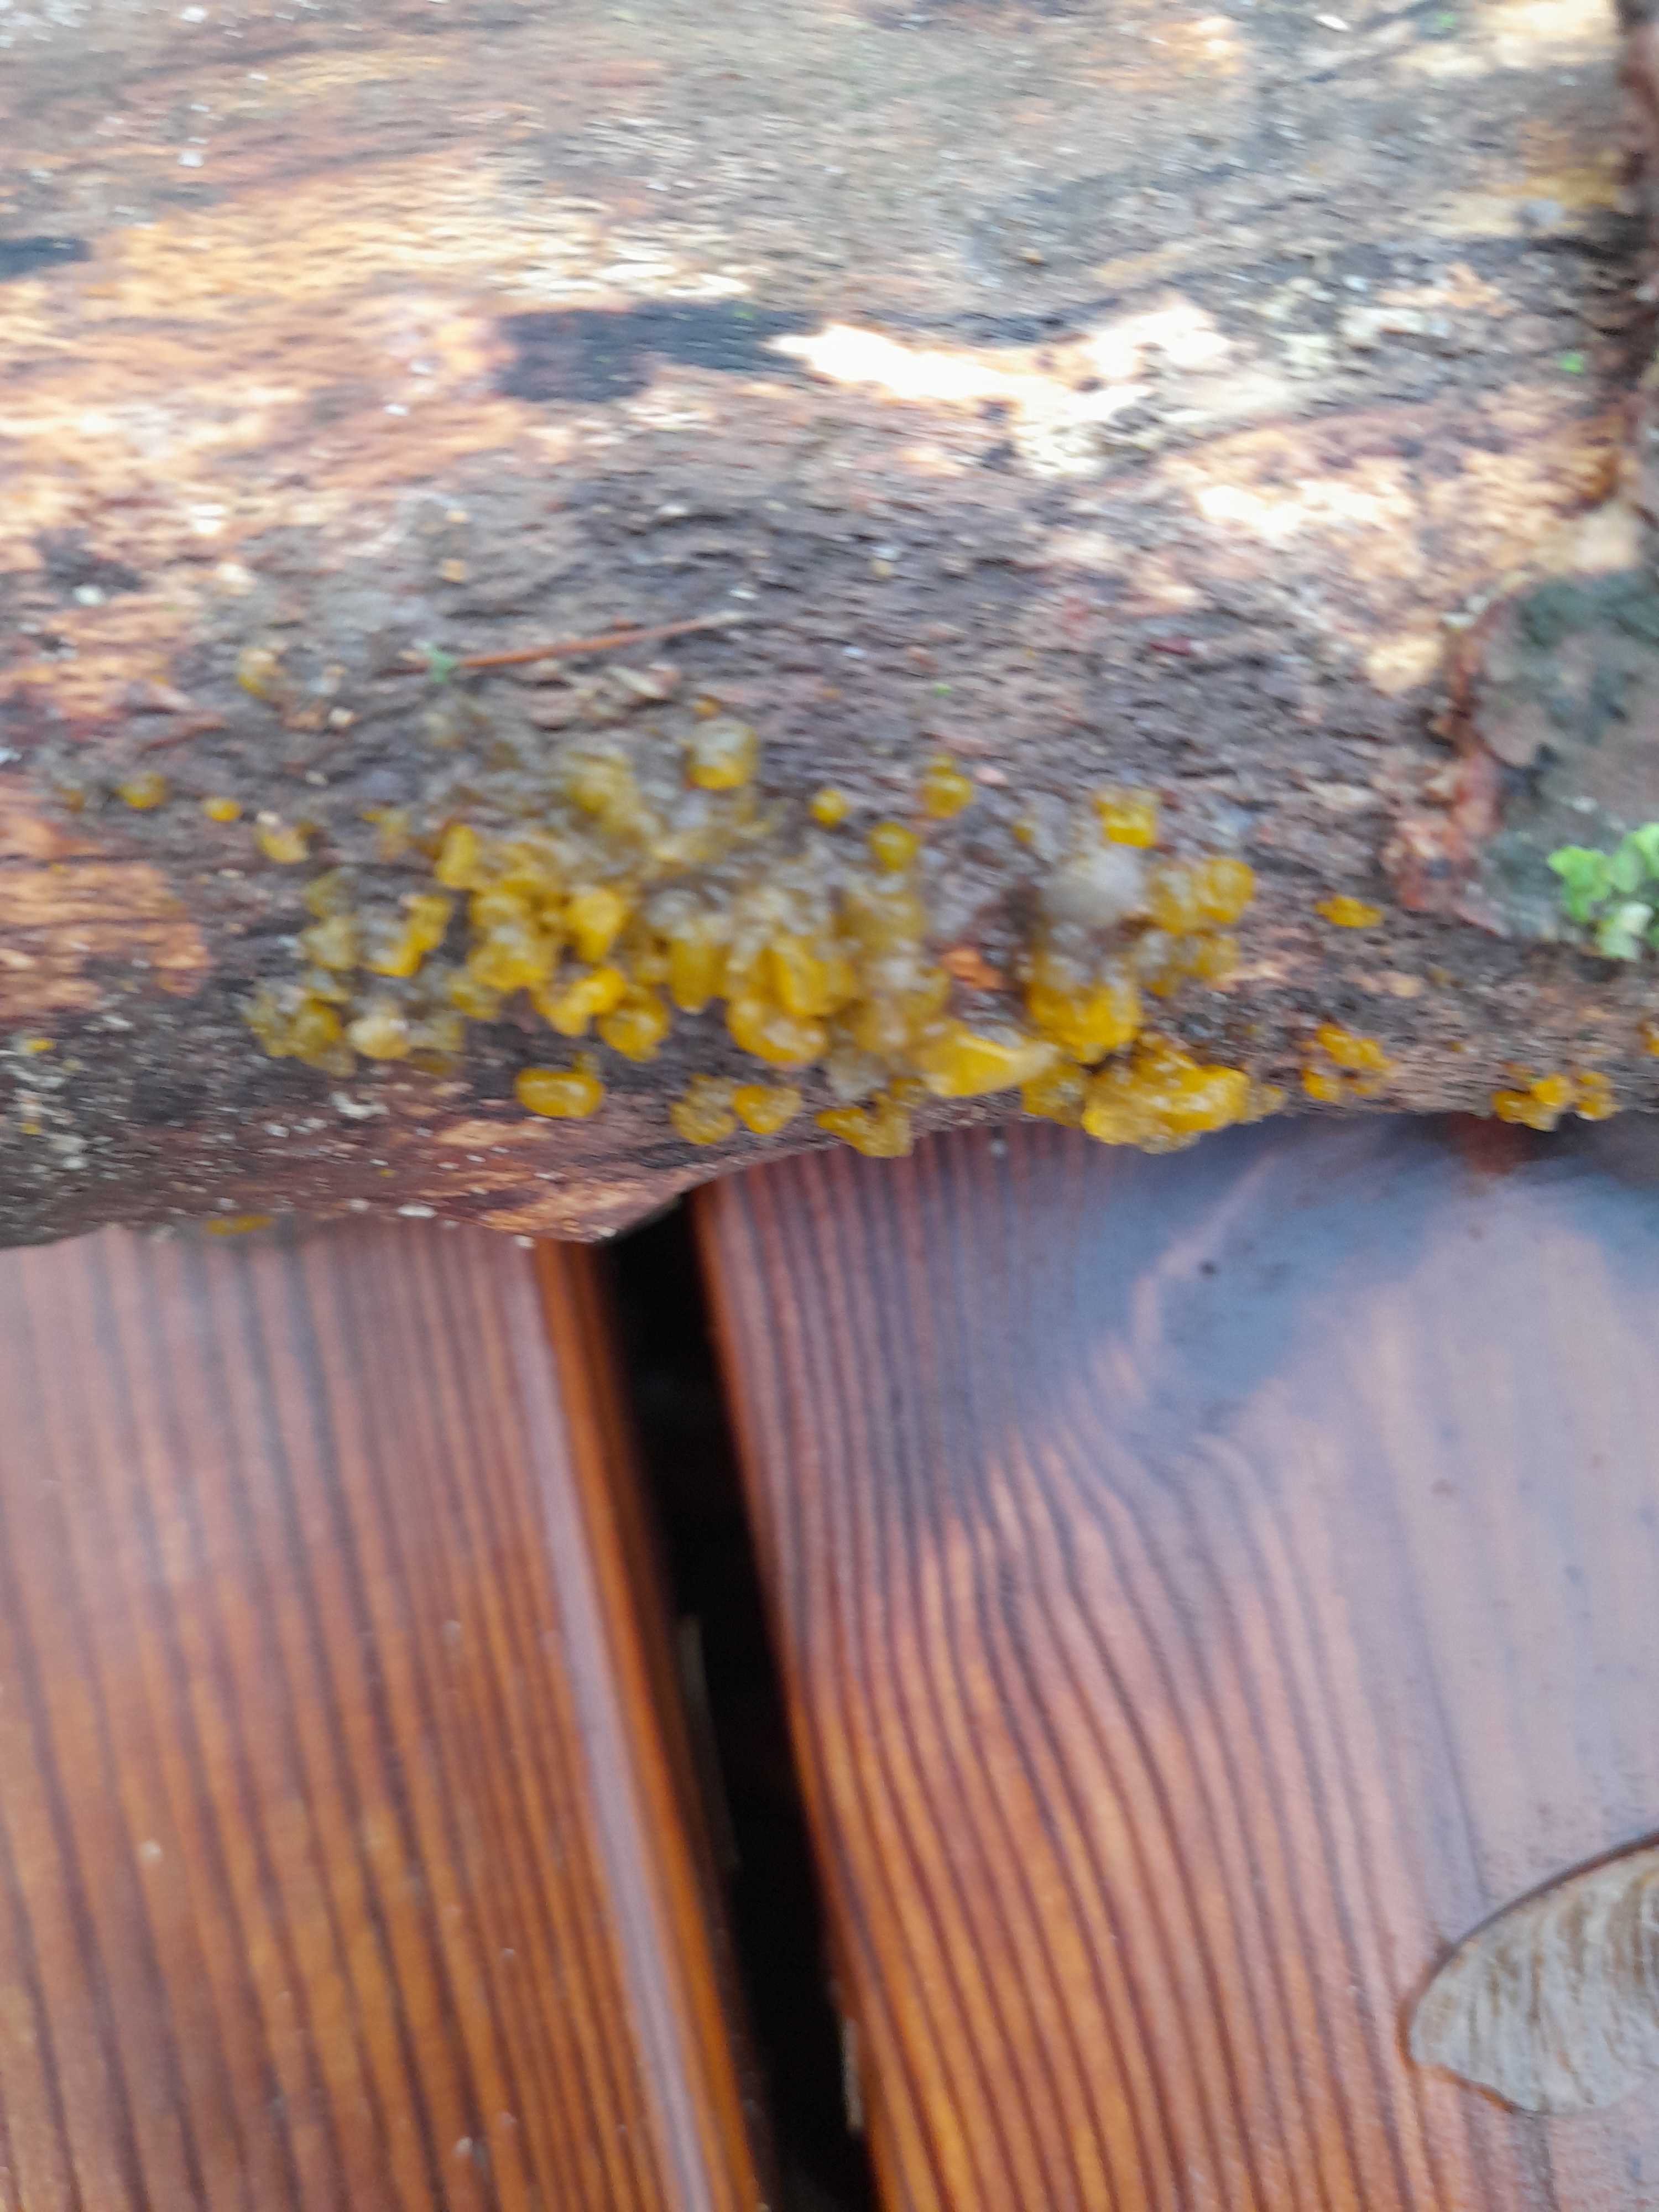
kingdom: Fungi
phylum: Basidiomycota
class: Dacrymycetes
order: Dacrymycetales
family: Dacrymycetaceae
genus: Dacrymyces
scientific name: Dacrymyces
